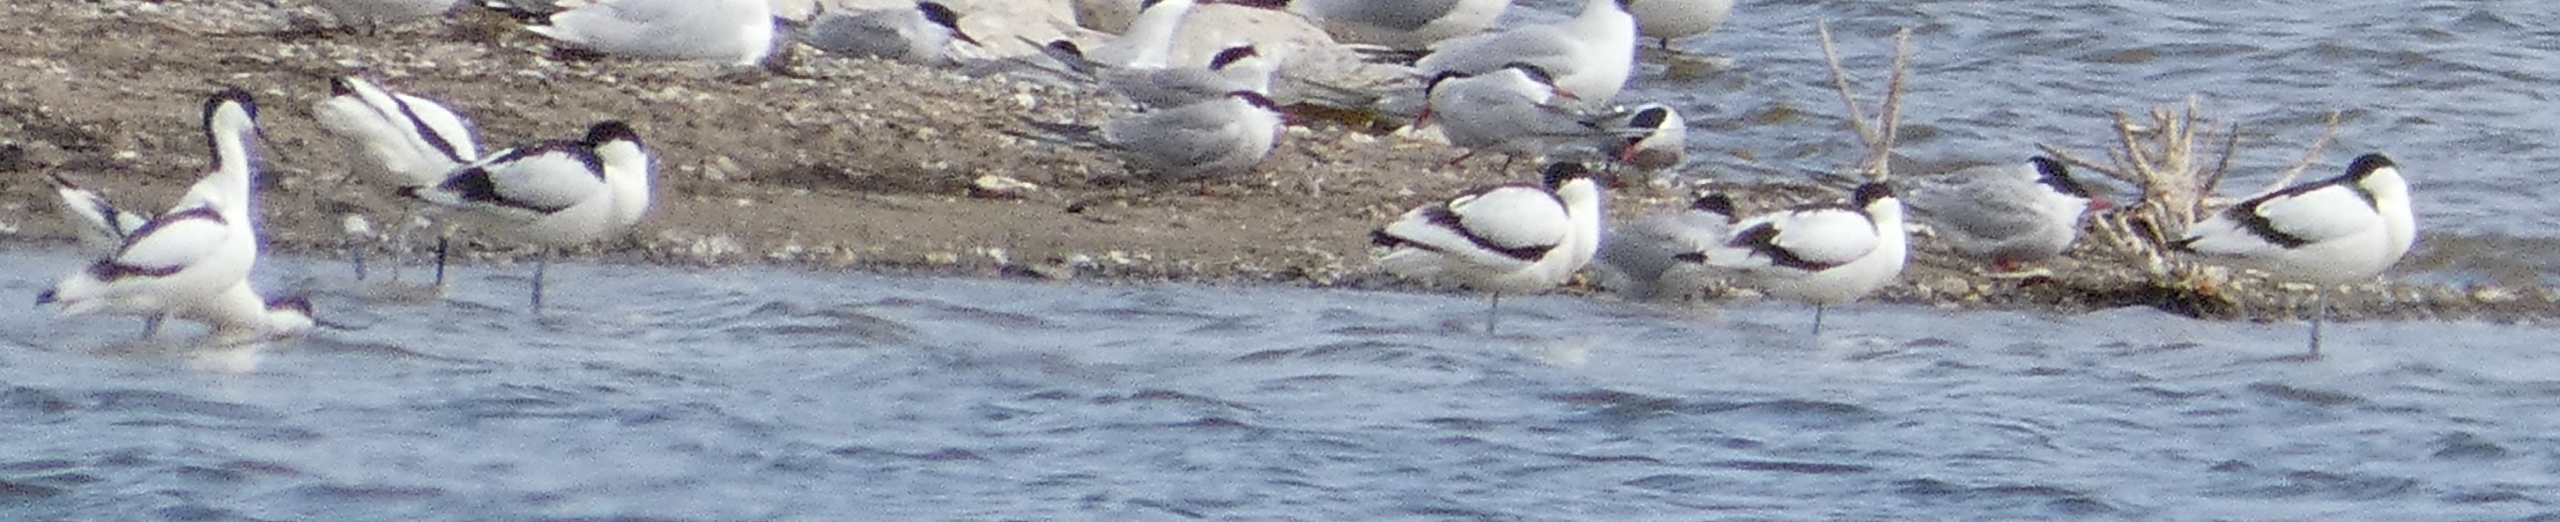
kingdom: Animalia
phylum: Chordata
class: Aves
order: Charadriiformes
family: Recurvirostridae
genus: Recurvirostra
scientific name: Recurvirostra avosetta
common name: Klyde
